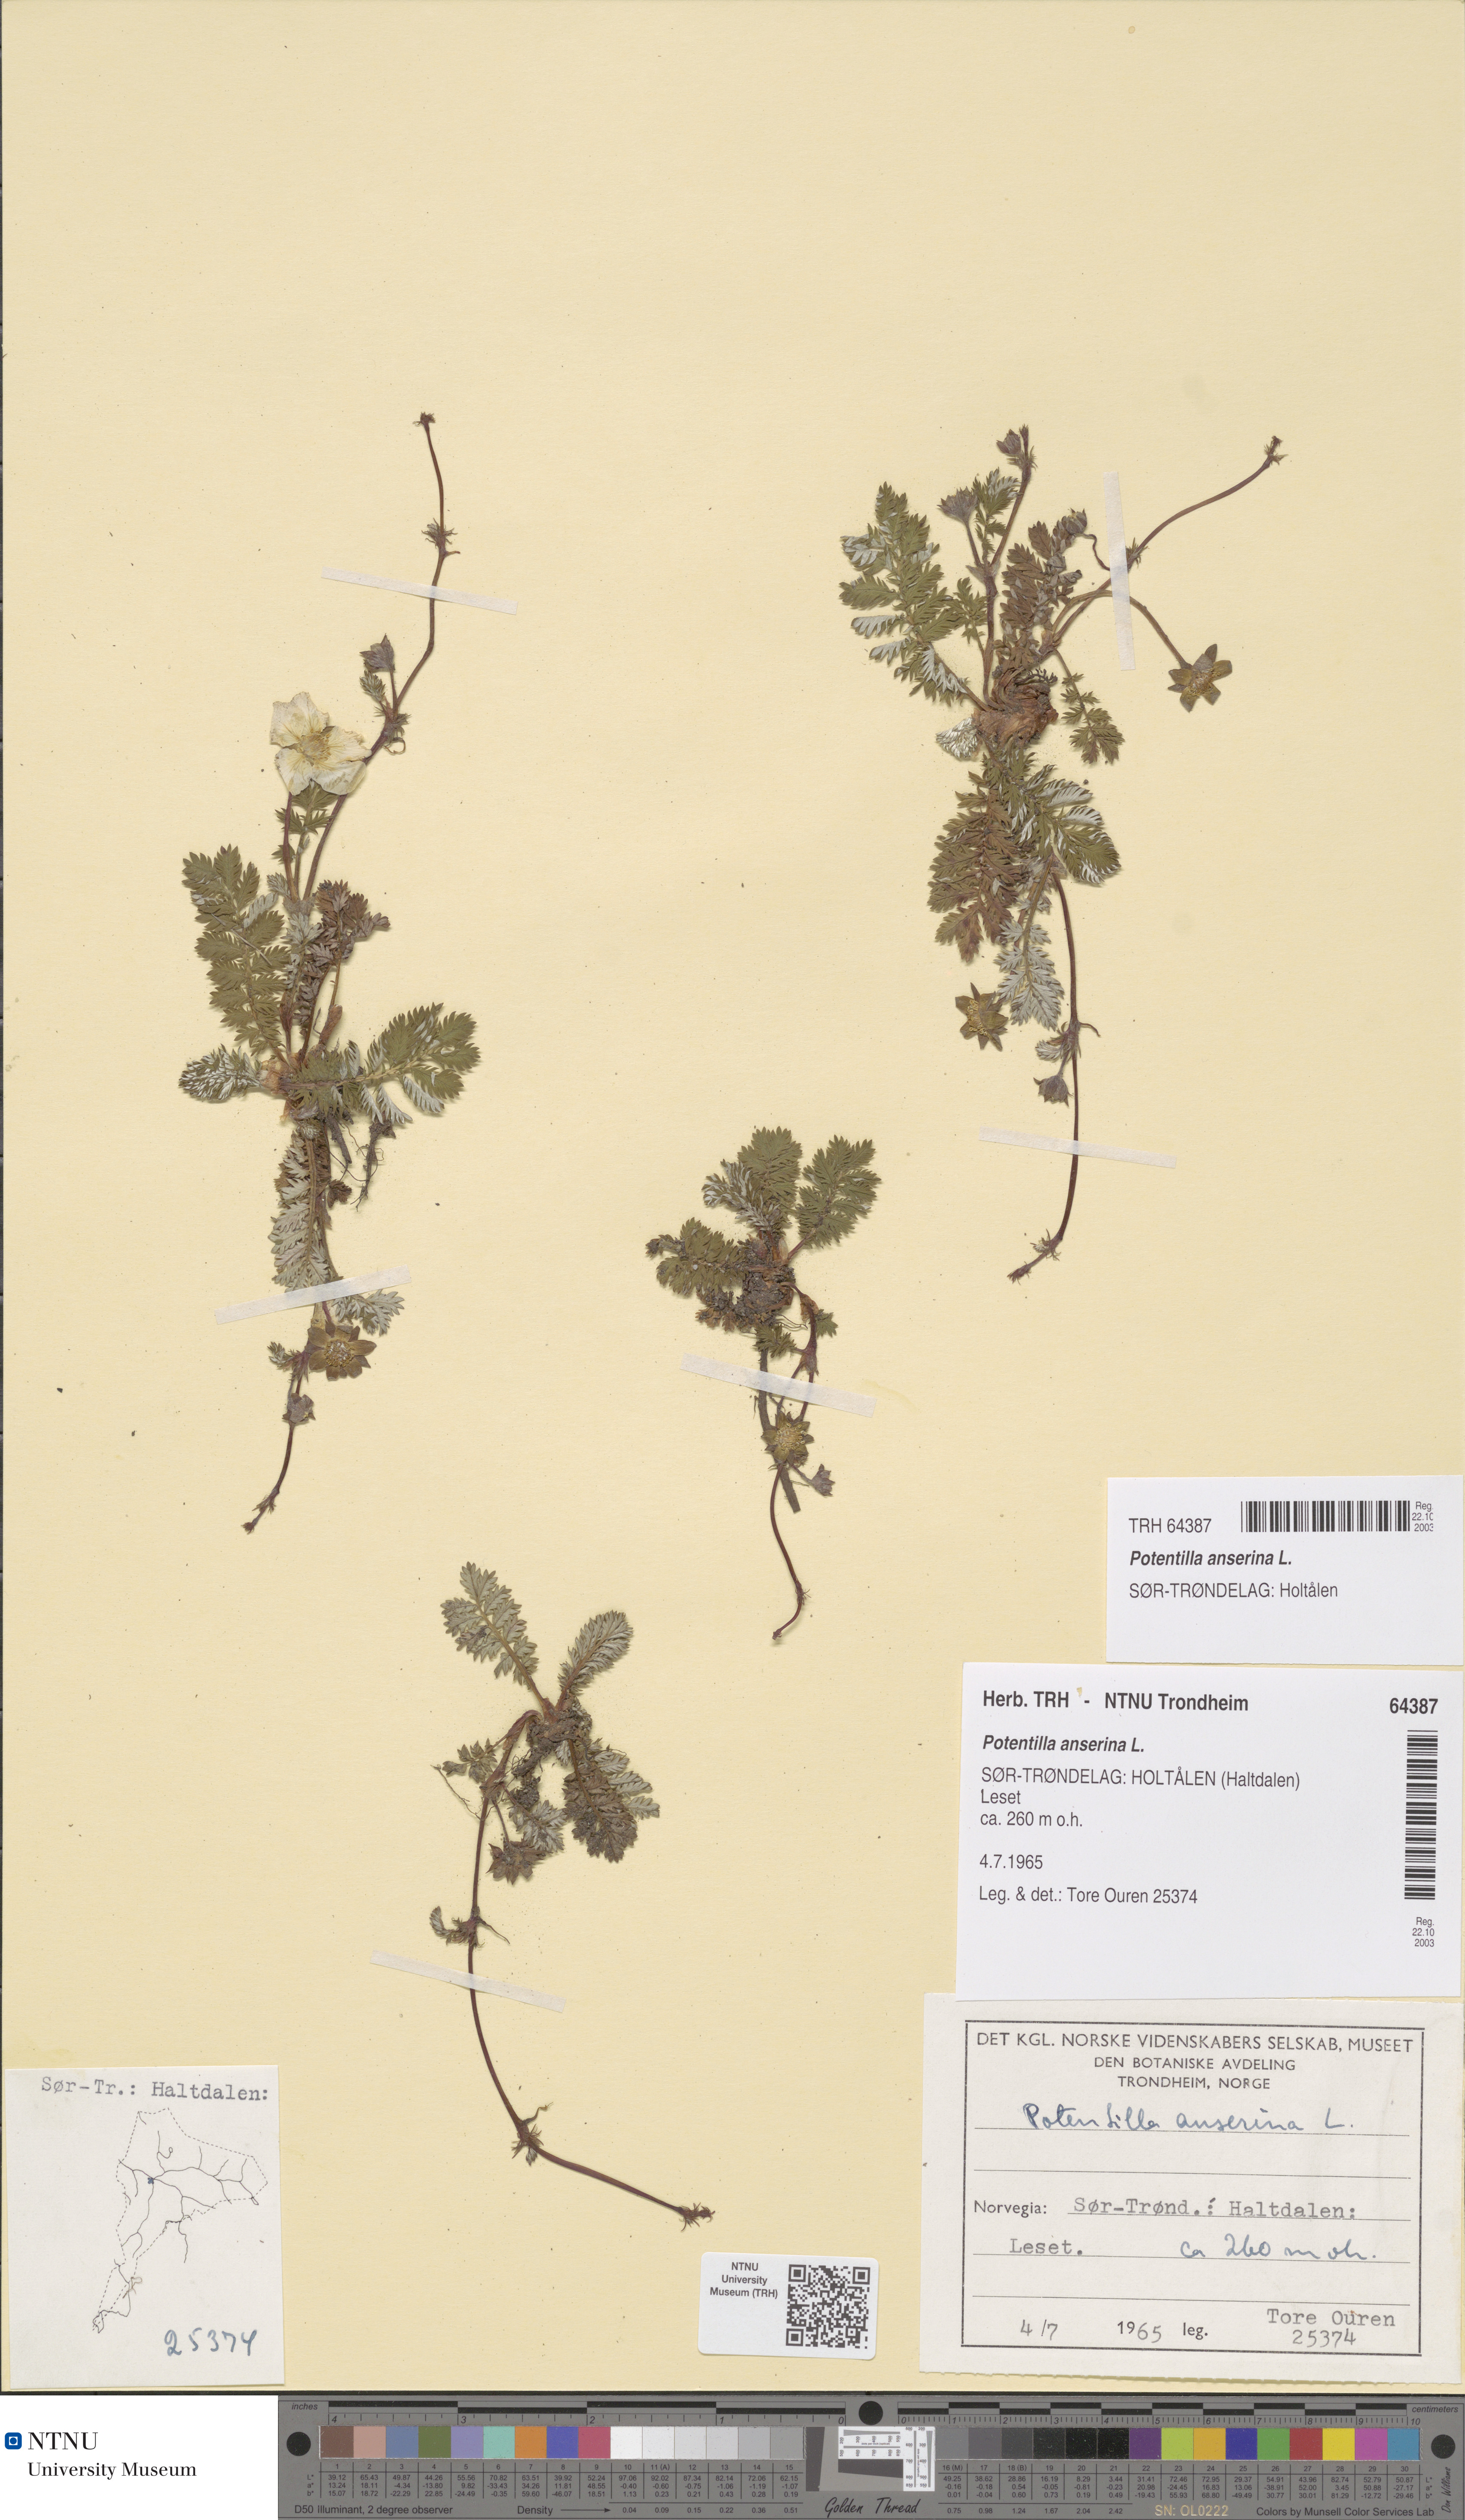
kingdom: Plantae
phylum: Tracheophyta
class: Magnoliopsida
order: Rosales
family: Rosaceae
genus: Argentina
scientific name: Argentina anserina
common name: Common silverweed
